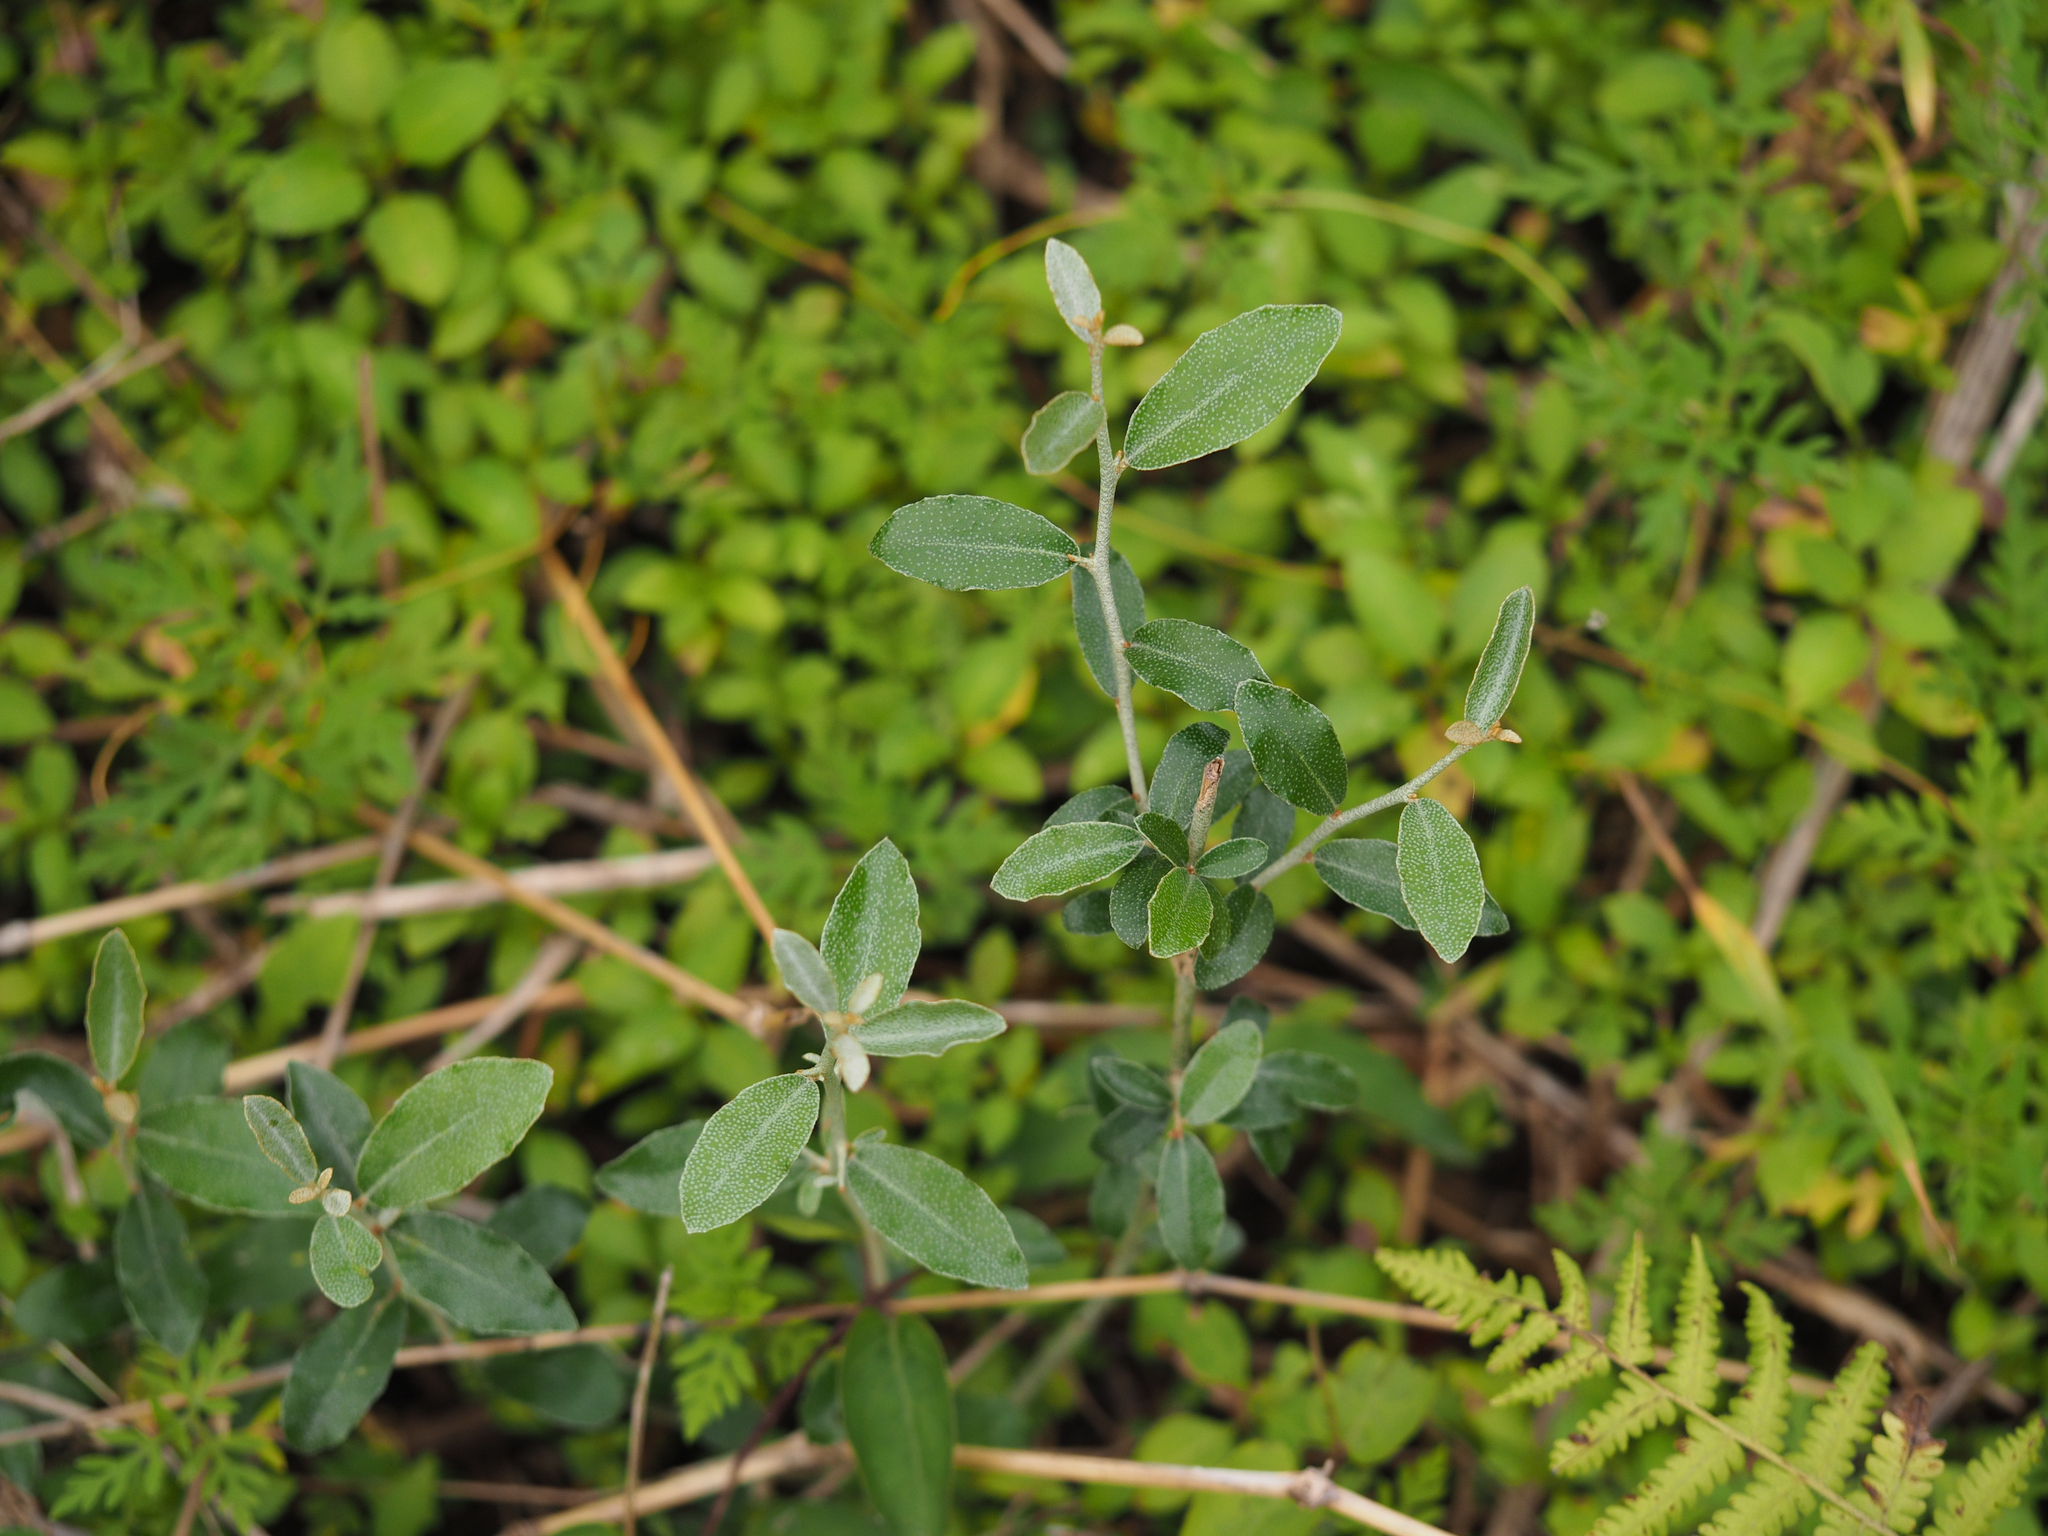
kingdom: Plantae
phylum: Tracheophyta
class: Magnoliopsida
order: Rosales
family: Elaeagnaceae
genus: Elaeagnus
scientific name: Elaeagnus oldhamii
